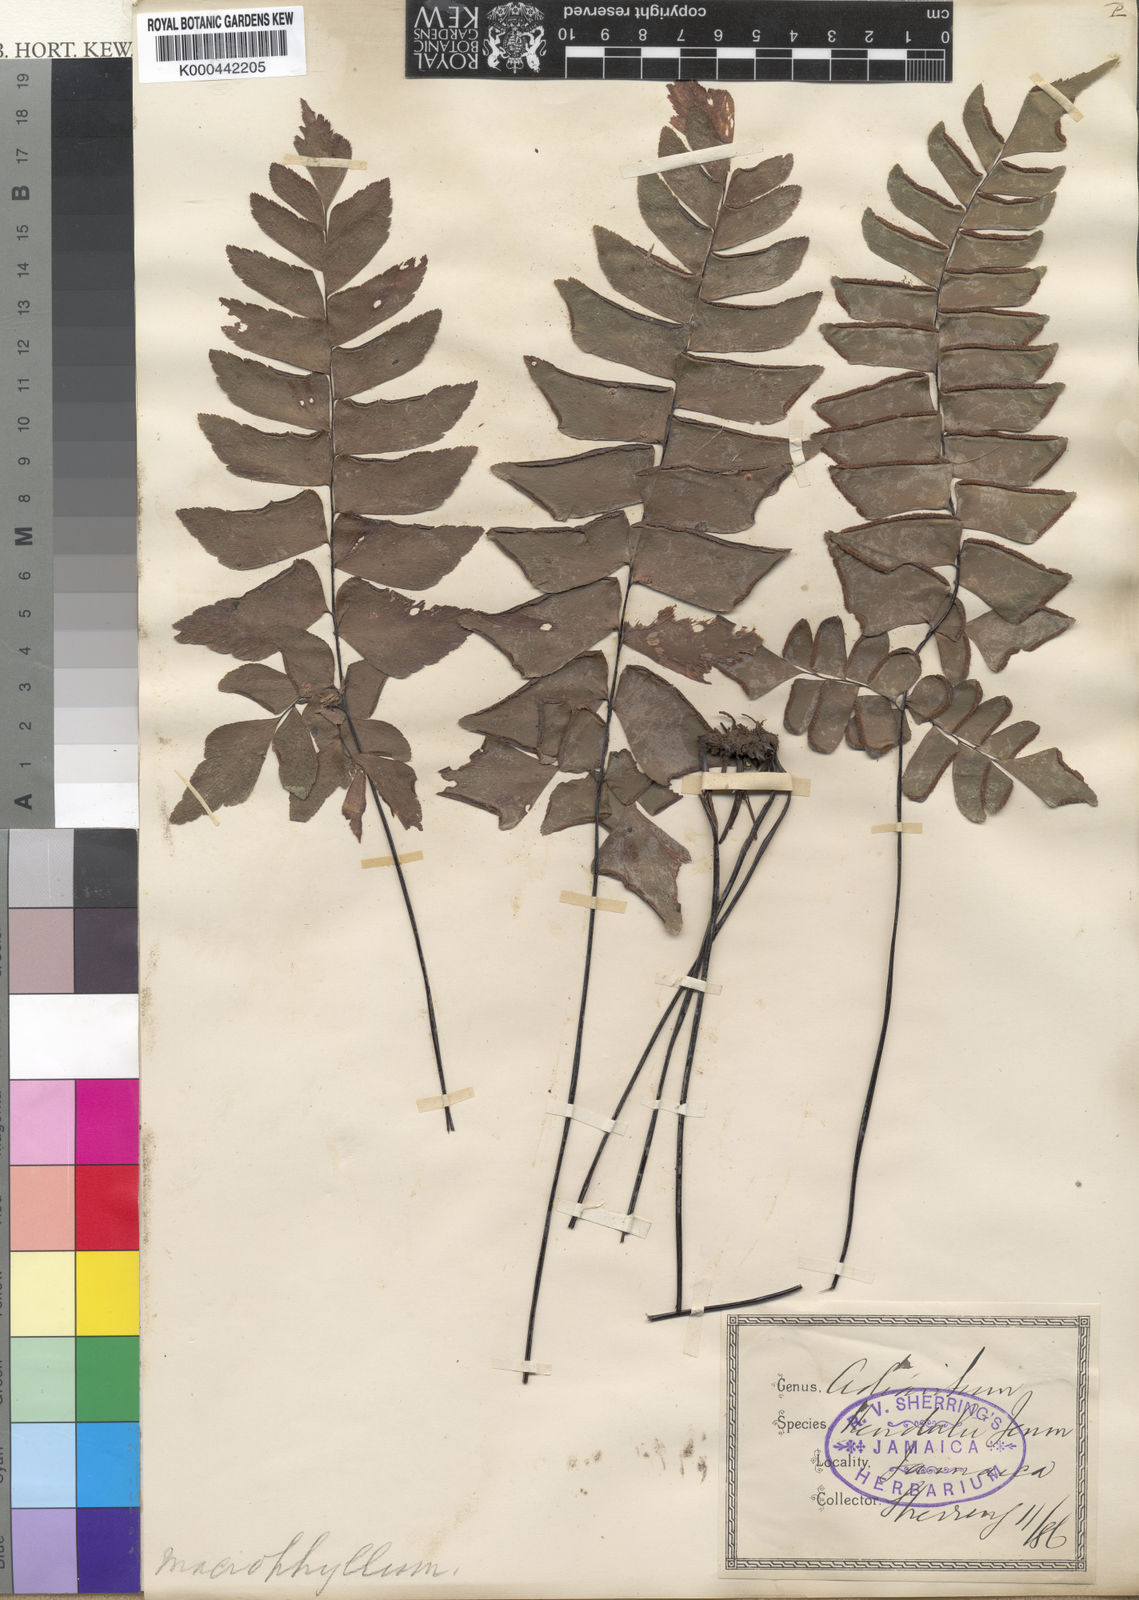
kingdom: Plantae
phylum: Tracheophyta
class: Polypodiopsida
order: Polypodiales
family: Pteridaceae
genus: Adiantum
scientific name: Adiantum kendalii
